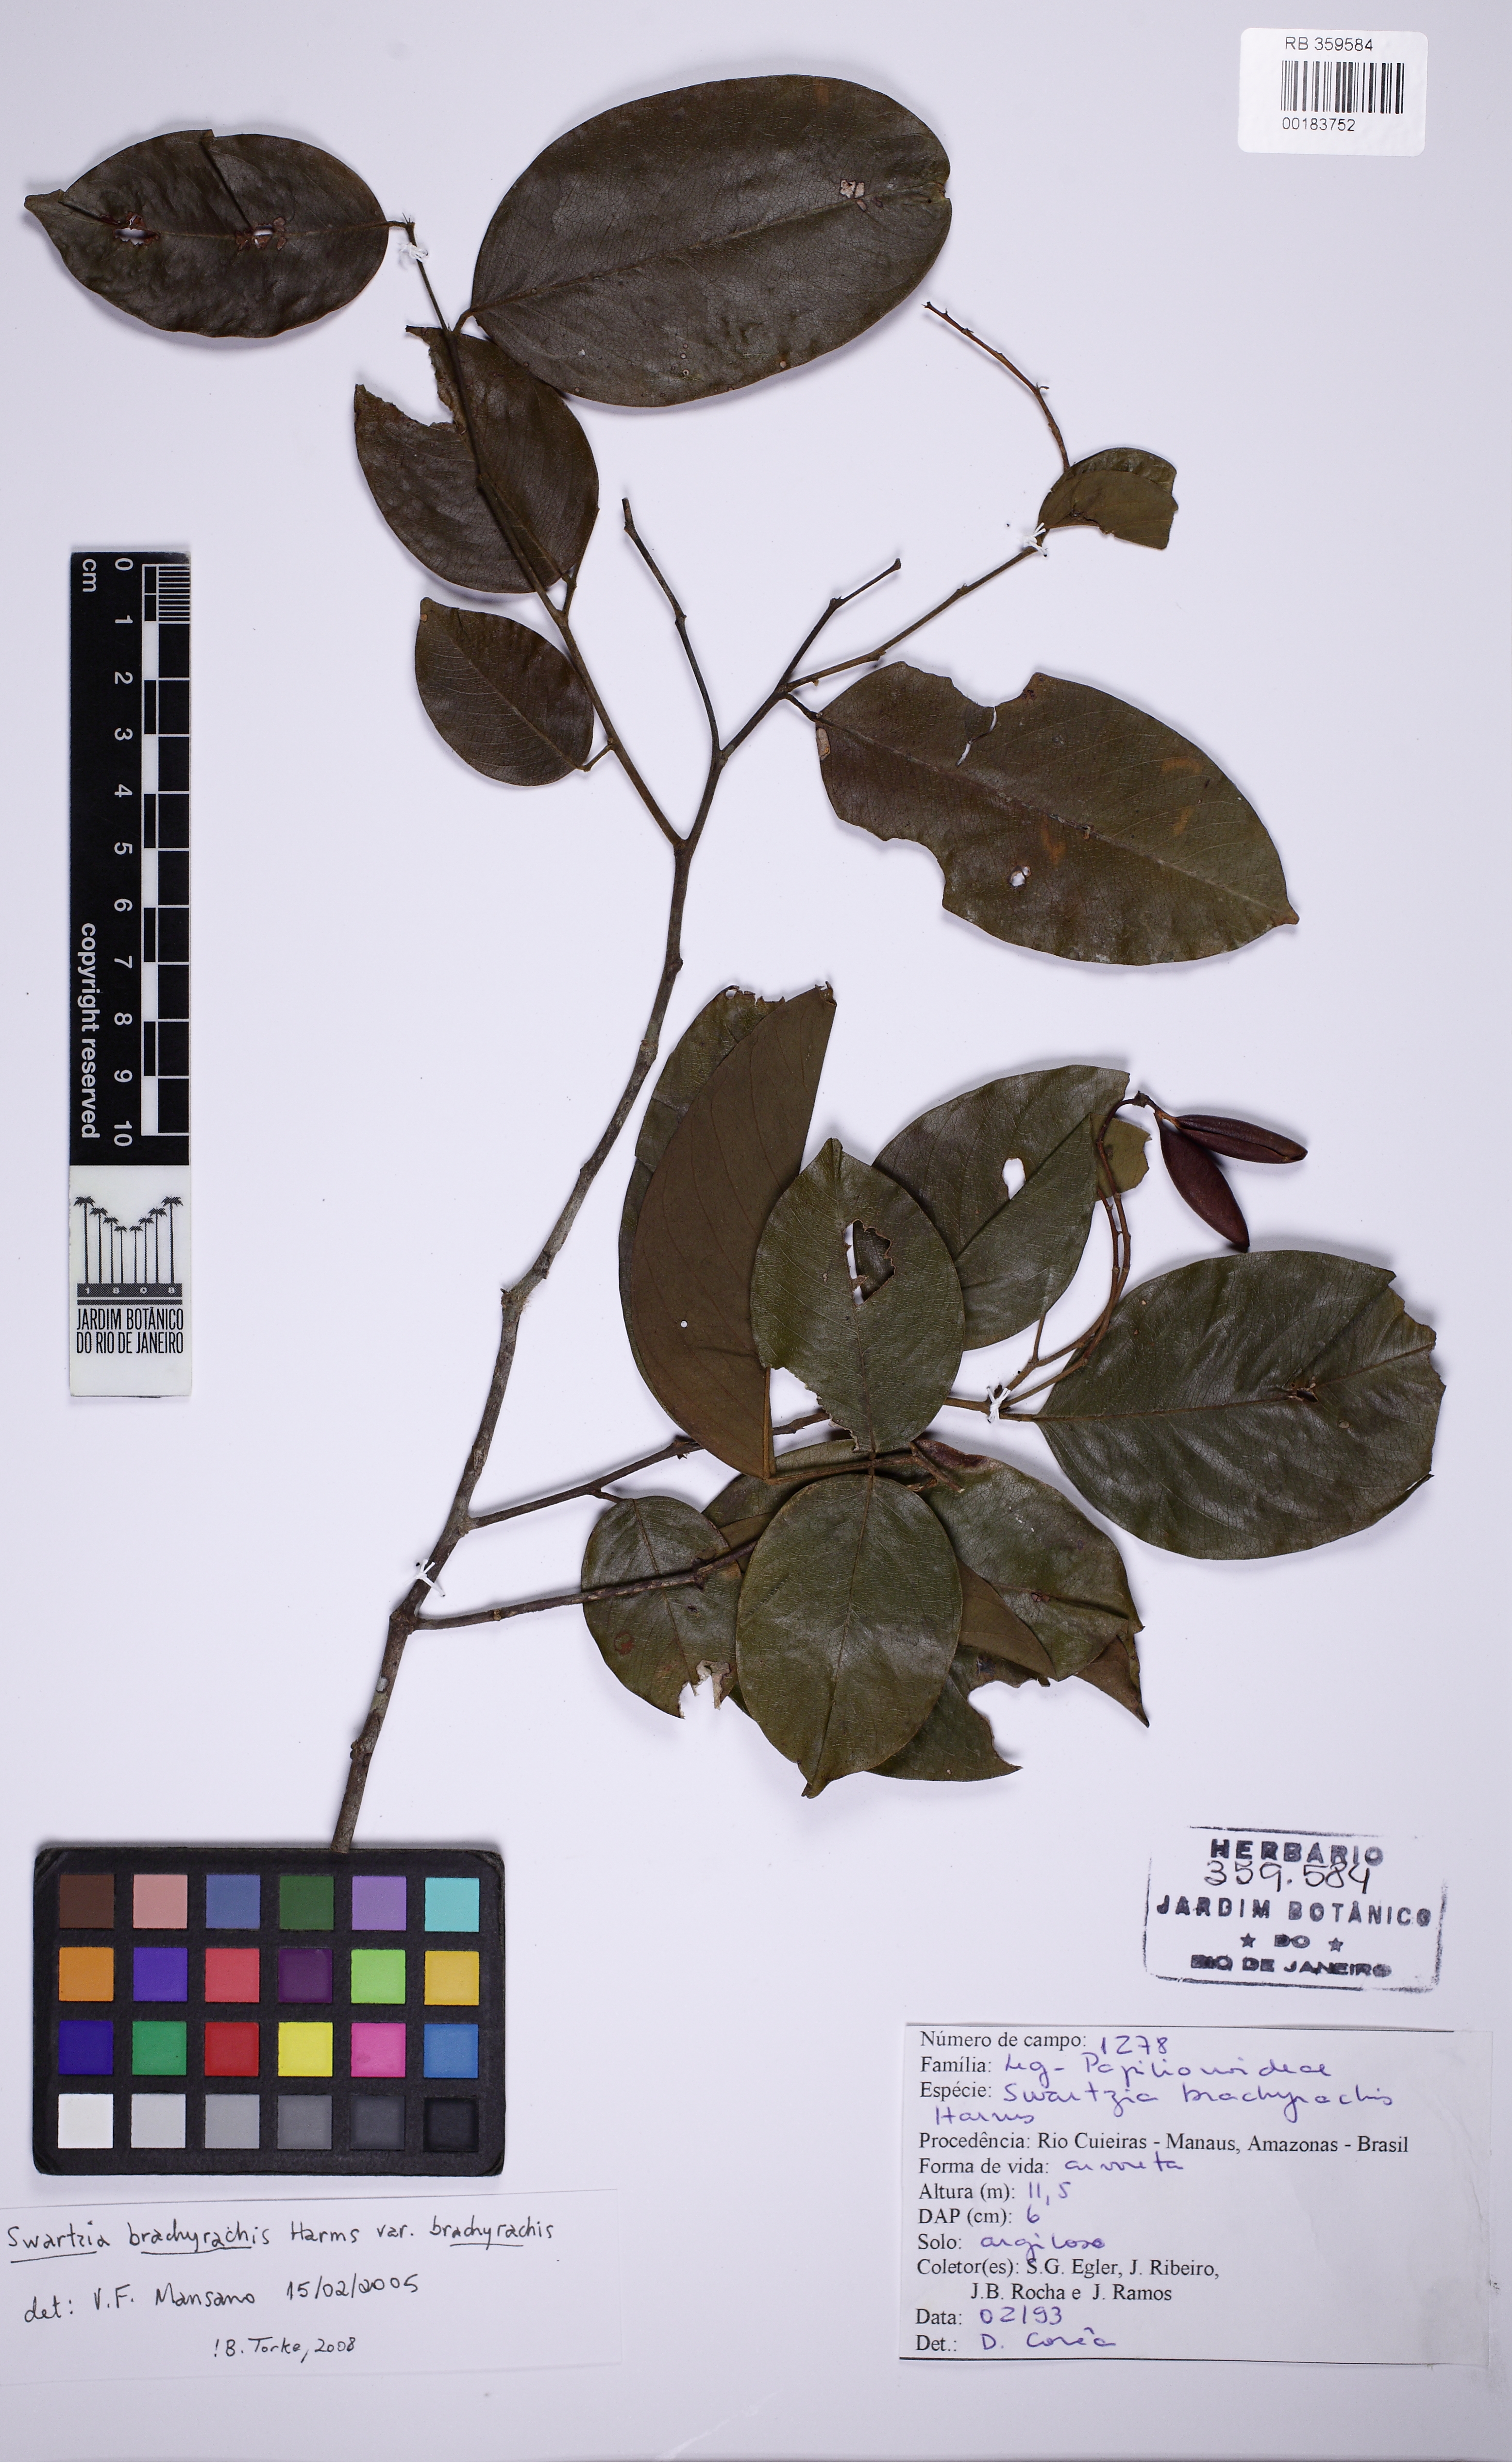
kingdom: Plantae
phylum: Tracheophyta
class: Magnoliopsida
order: Fabales
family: Fabaceae
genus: Swartzia
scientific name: Swartzia brachyrhachis
